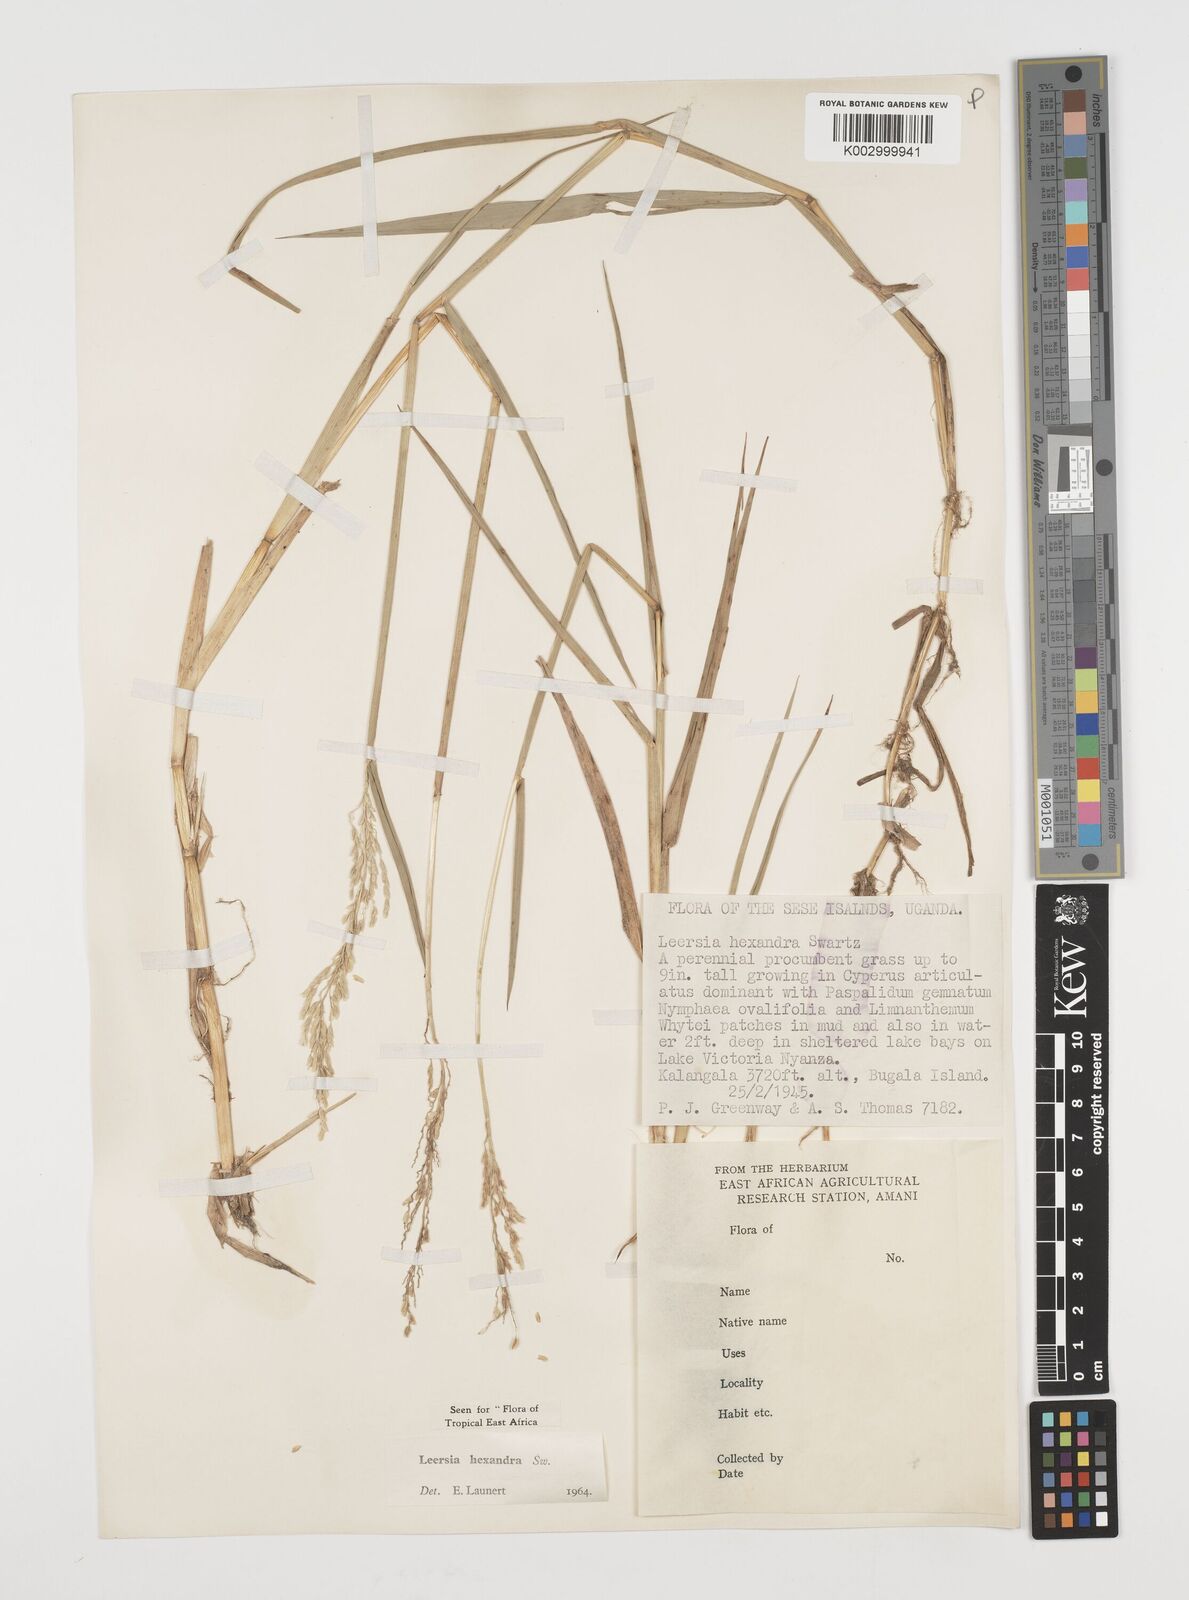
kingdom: Plantae
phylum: Tracheophyta
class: Liliopsida
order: Poales
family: Poaceae
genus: Leersia
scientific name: Leersia hexandra
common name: Southern cut grass
